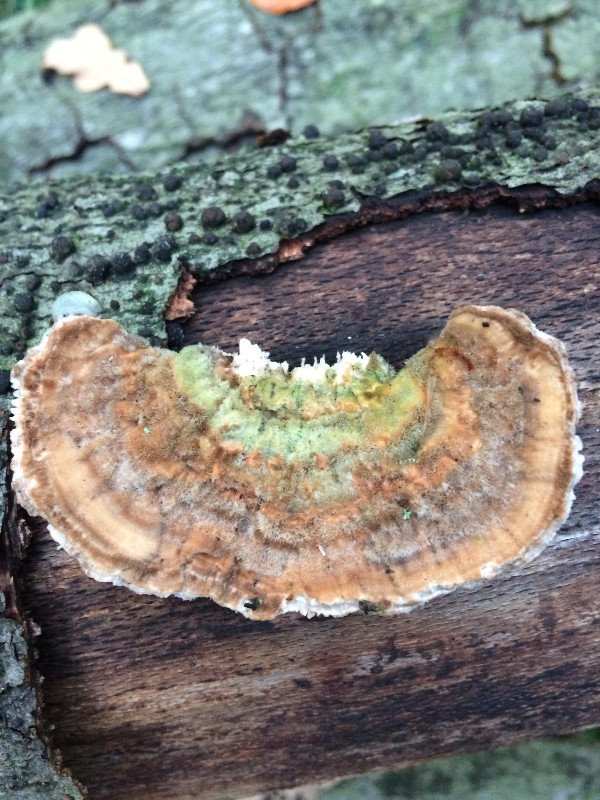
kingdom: Fungi
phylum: Basidiomycota
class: Agaricomycetes
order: Polyporales
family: Polyporaceae
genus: Lenzites
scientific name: Lenzites betulinus
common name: birke-læderporesvamp
